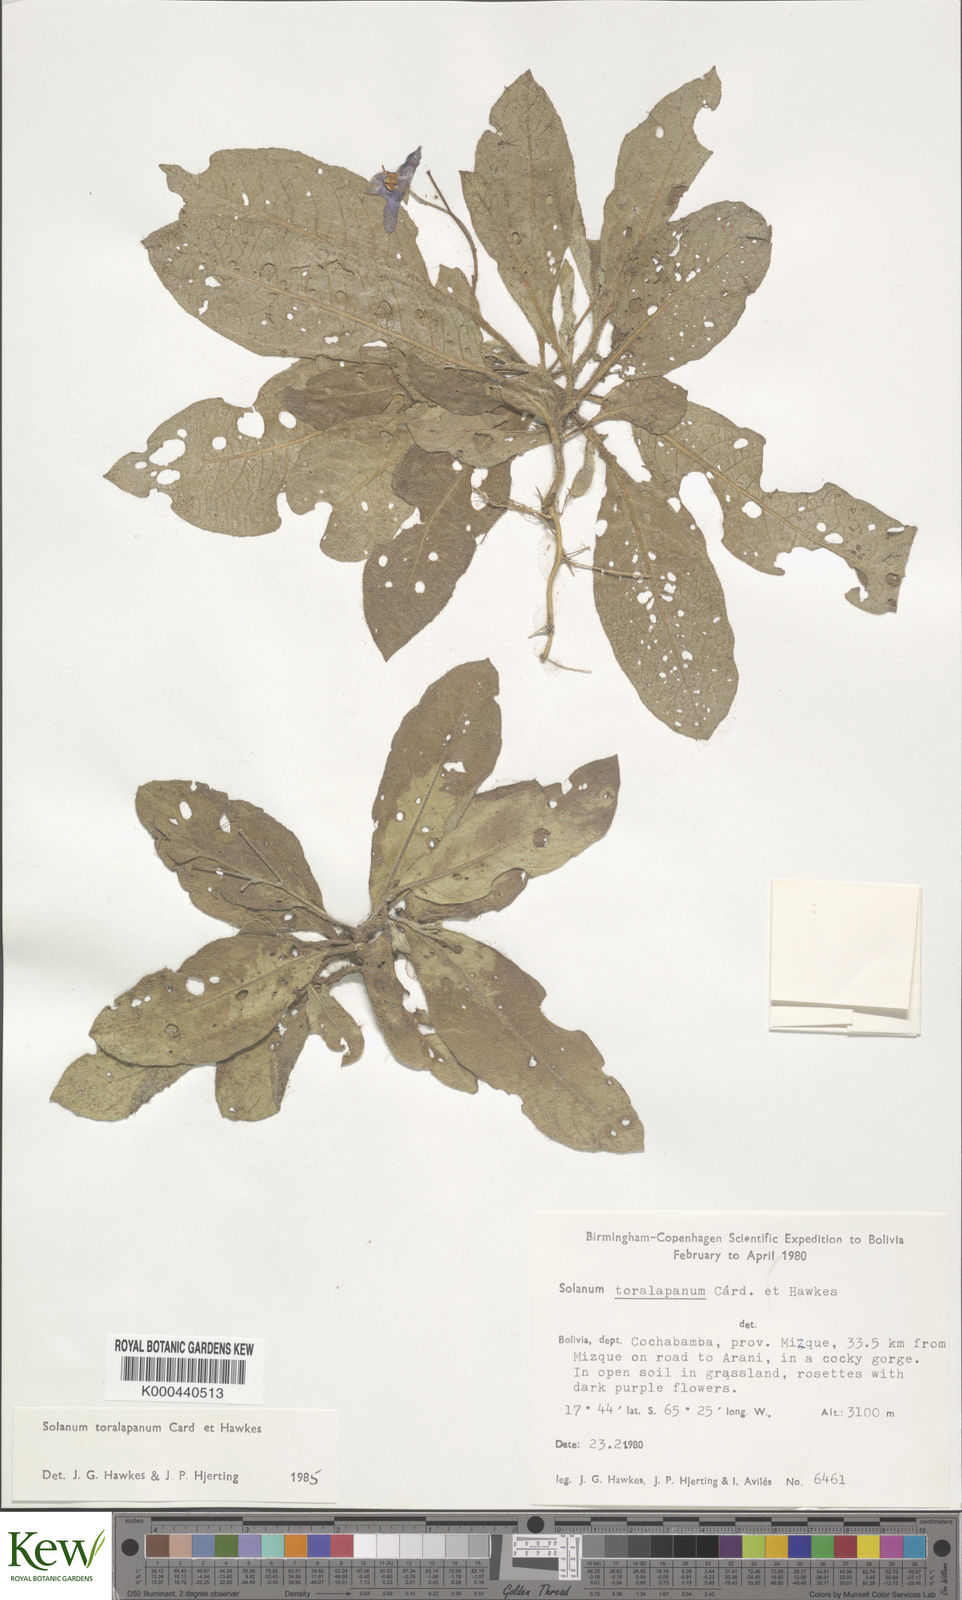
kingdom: Plantae
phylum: Tracheophyta
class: Magnoliopsida
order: Solanales
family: Solanaceae
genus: Solanum
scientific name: Solanum boliviense
